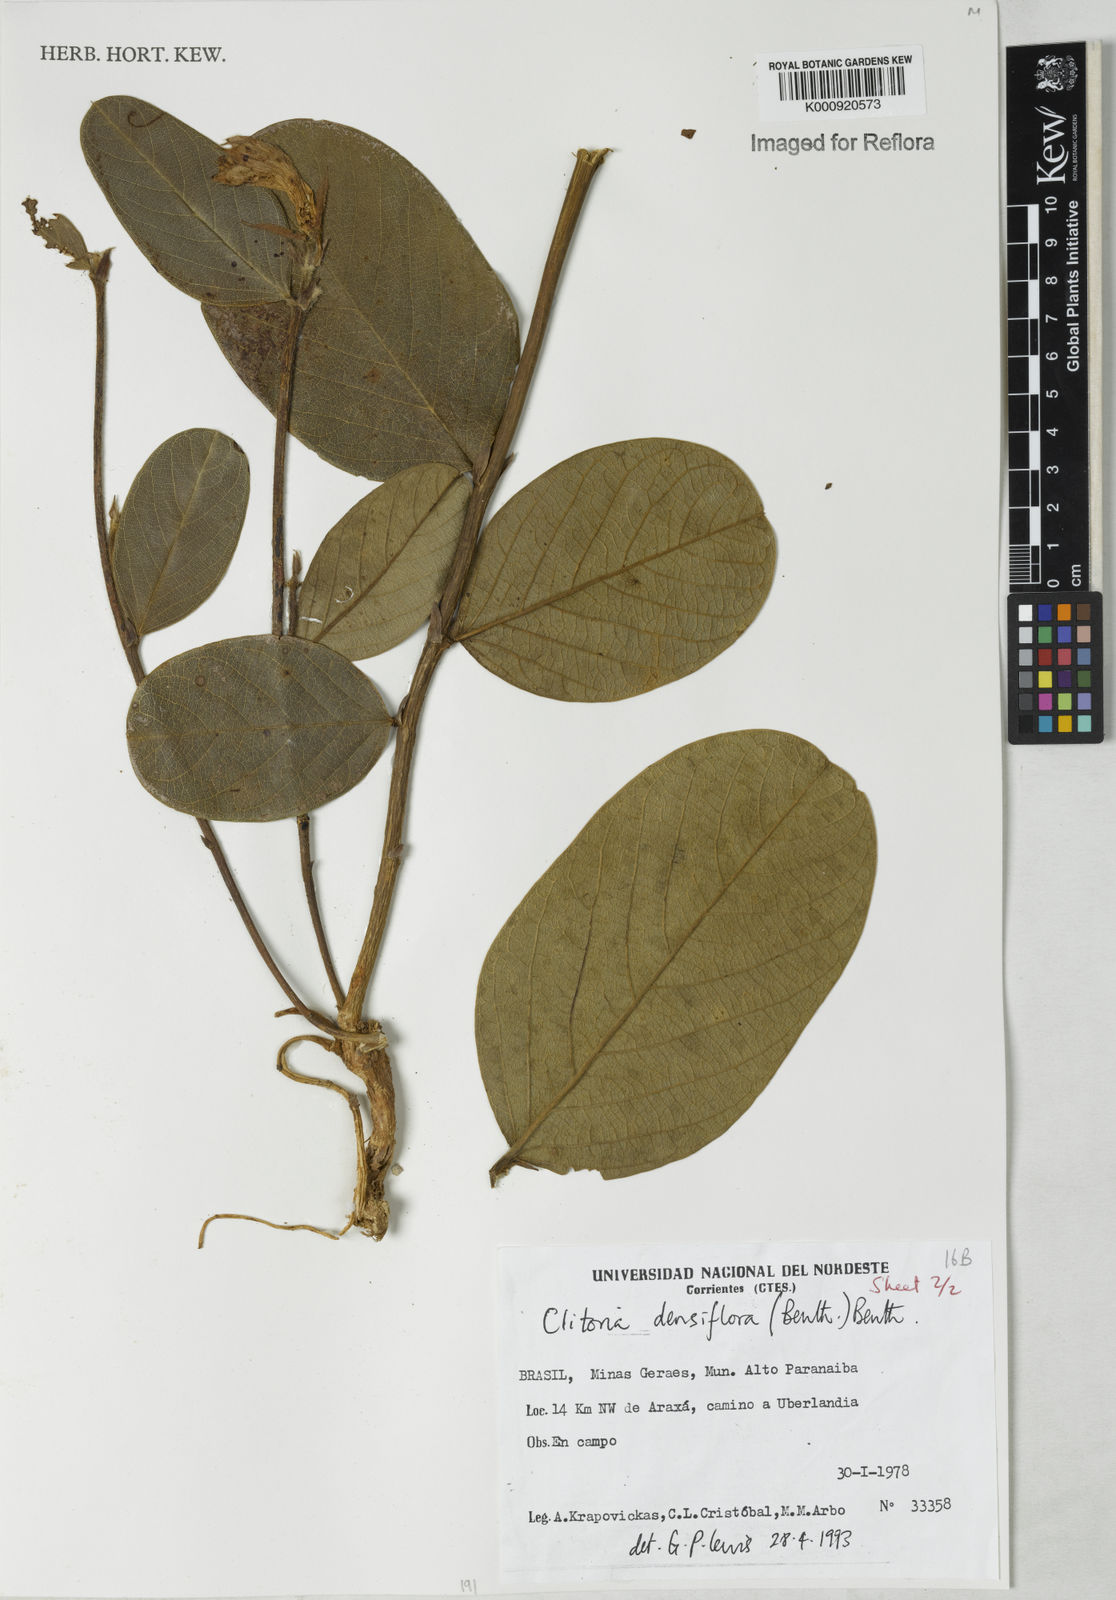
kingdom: Plantae
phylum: Tracheophyta
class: Magnoliopsida
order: Fabales
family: Fabaceae
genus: Clitoria
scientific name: Clitoria
